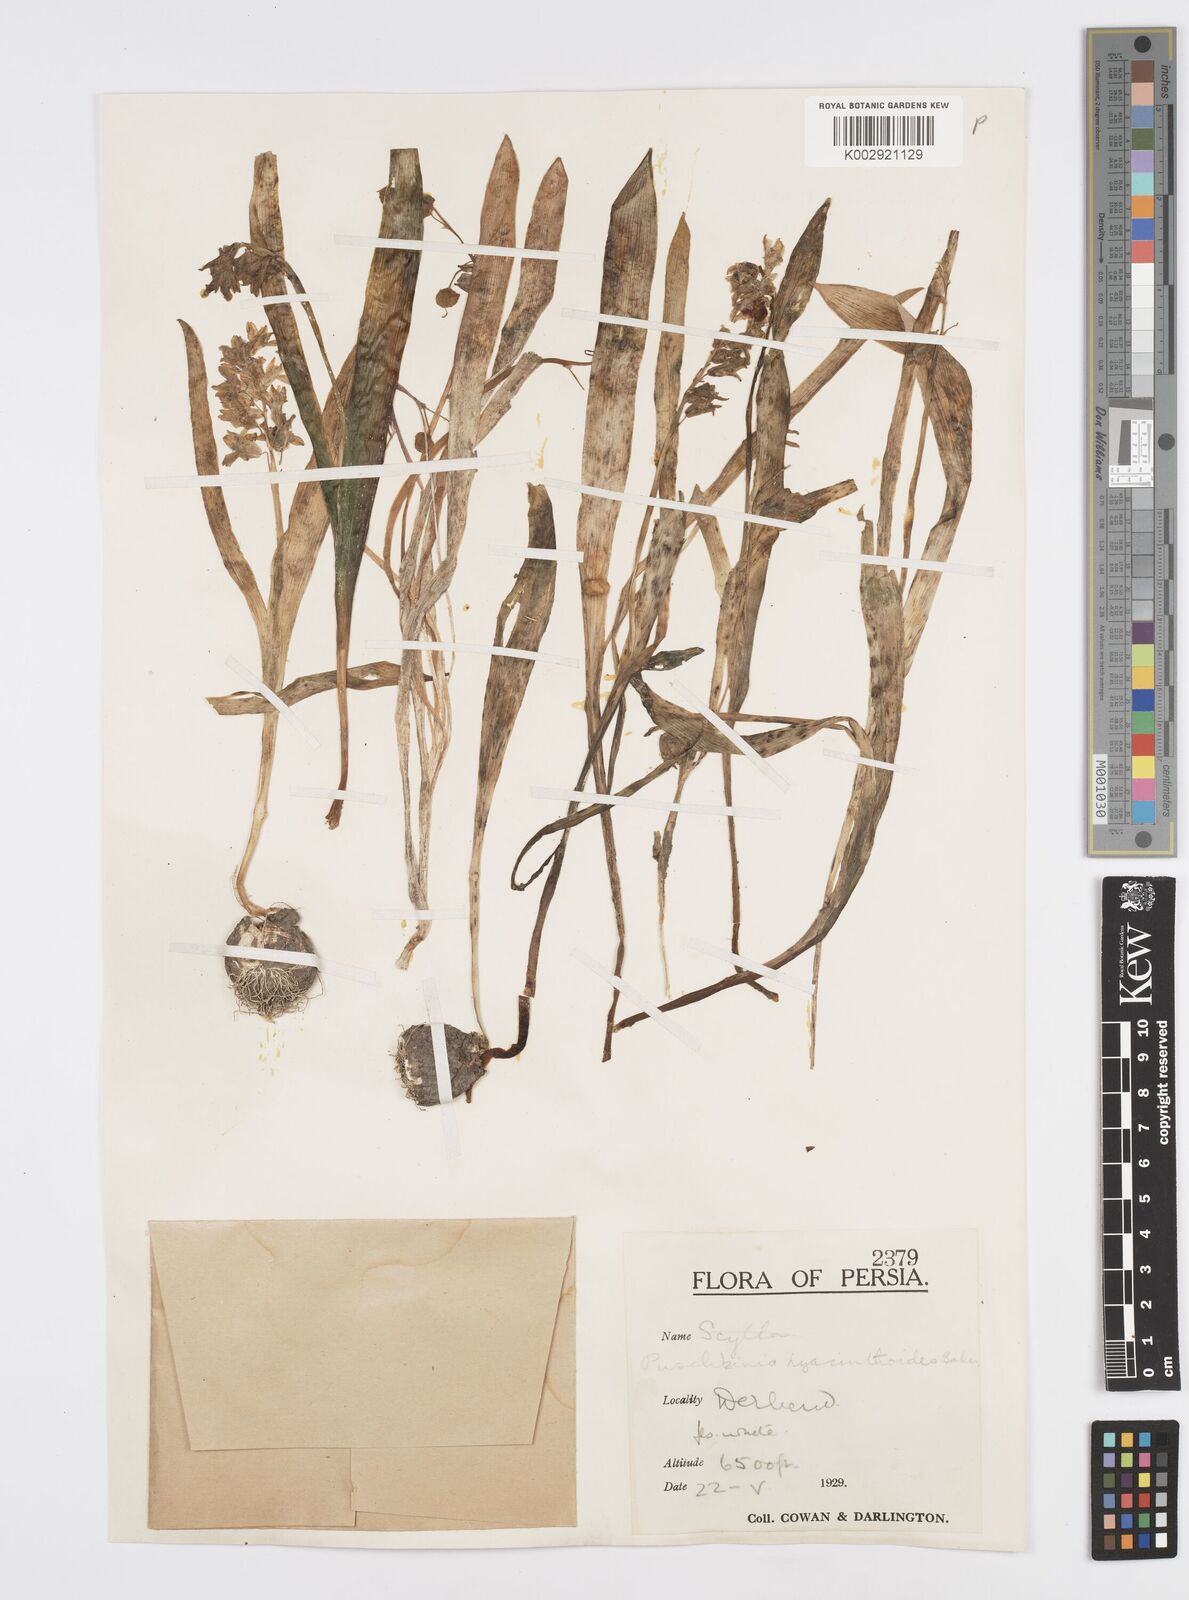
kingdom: Plantae
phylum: Tracheophyta
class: Liliopsida
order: Asparagales
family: Asparagaceae
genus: Puschkinia
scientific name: Puschkinia scilloides
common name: Striped squill
